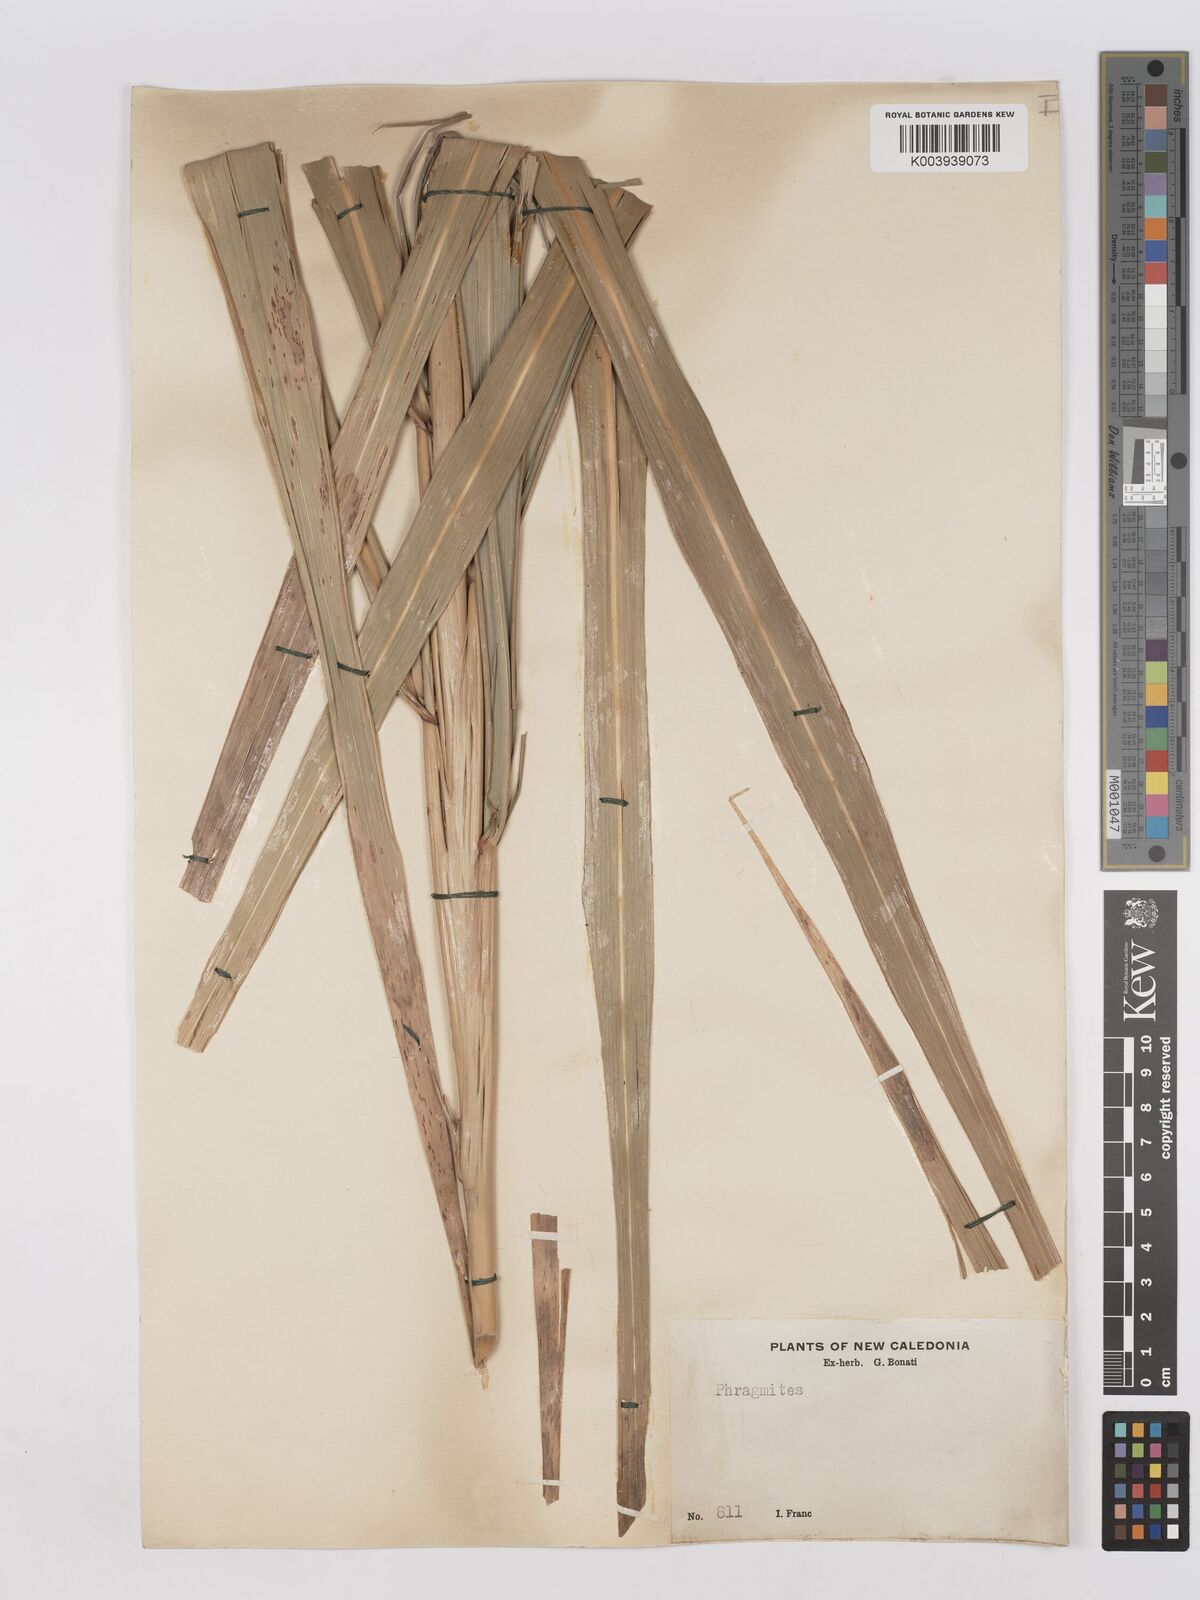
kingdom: Plantae
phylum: Tracheophyta
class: Liliopsida
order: Poales
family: Poaceae
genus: Phragmites
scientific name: Phragmites karka
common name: Tropical reed
